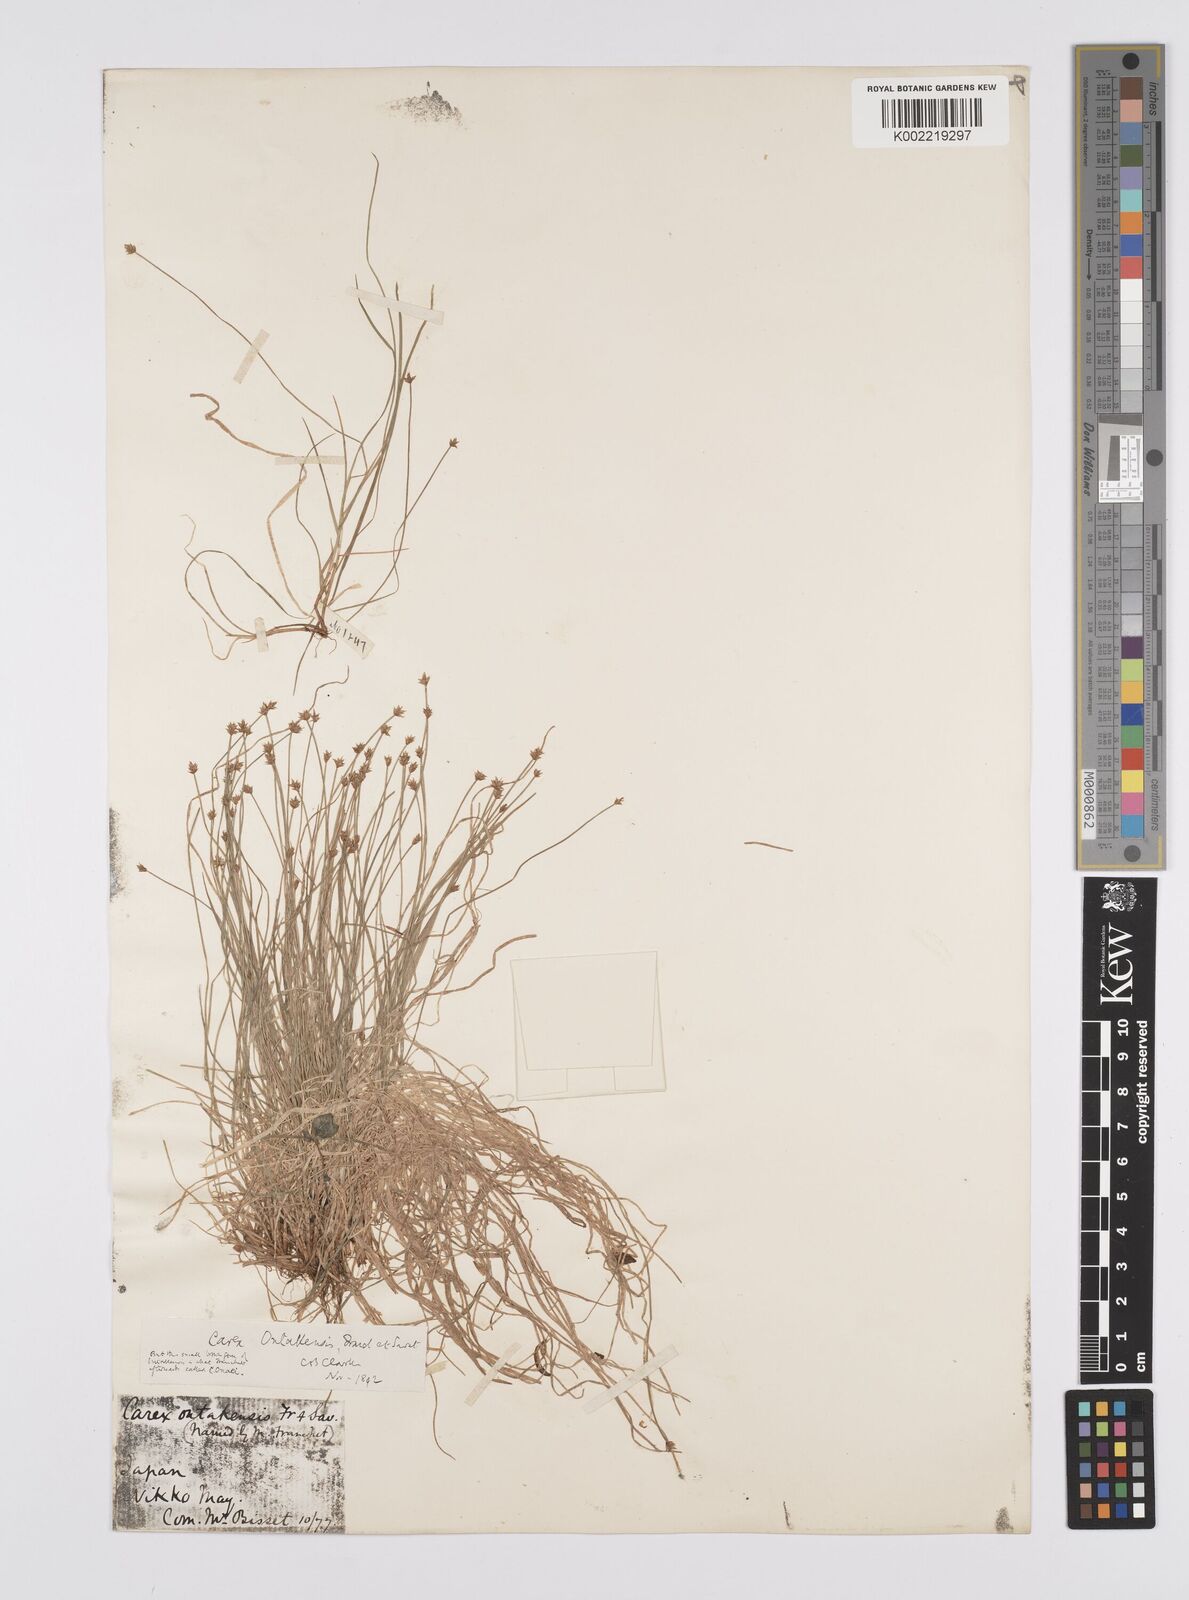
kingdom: Plantae
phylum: Tracheophyta
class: Liliopsida
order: Poales
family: Cyperaceae
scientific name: Cyperaceae
